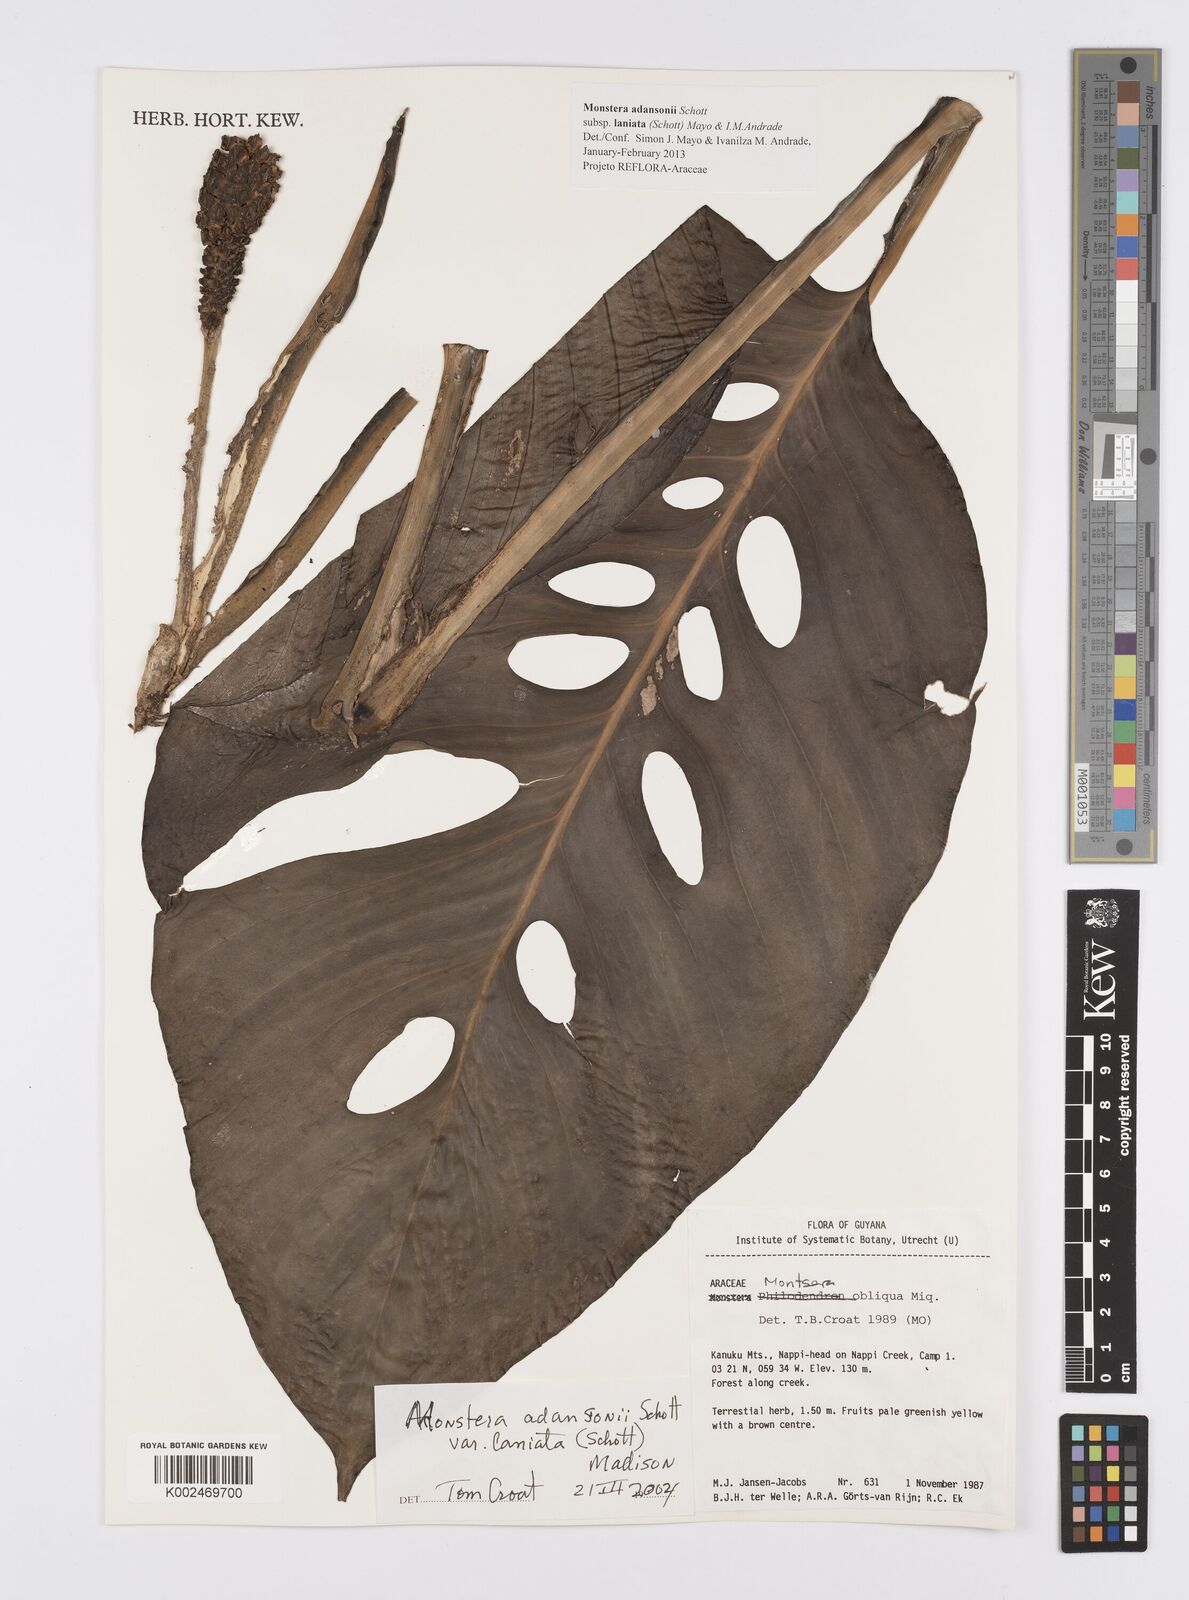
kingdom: Plantae
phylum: Tracheophyta
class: Liliopsida
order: Alismatales
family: Araceae
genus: Monstera
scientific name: Monstera adansonii
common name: Tarovine
